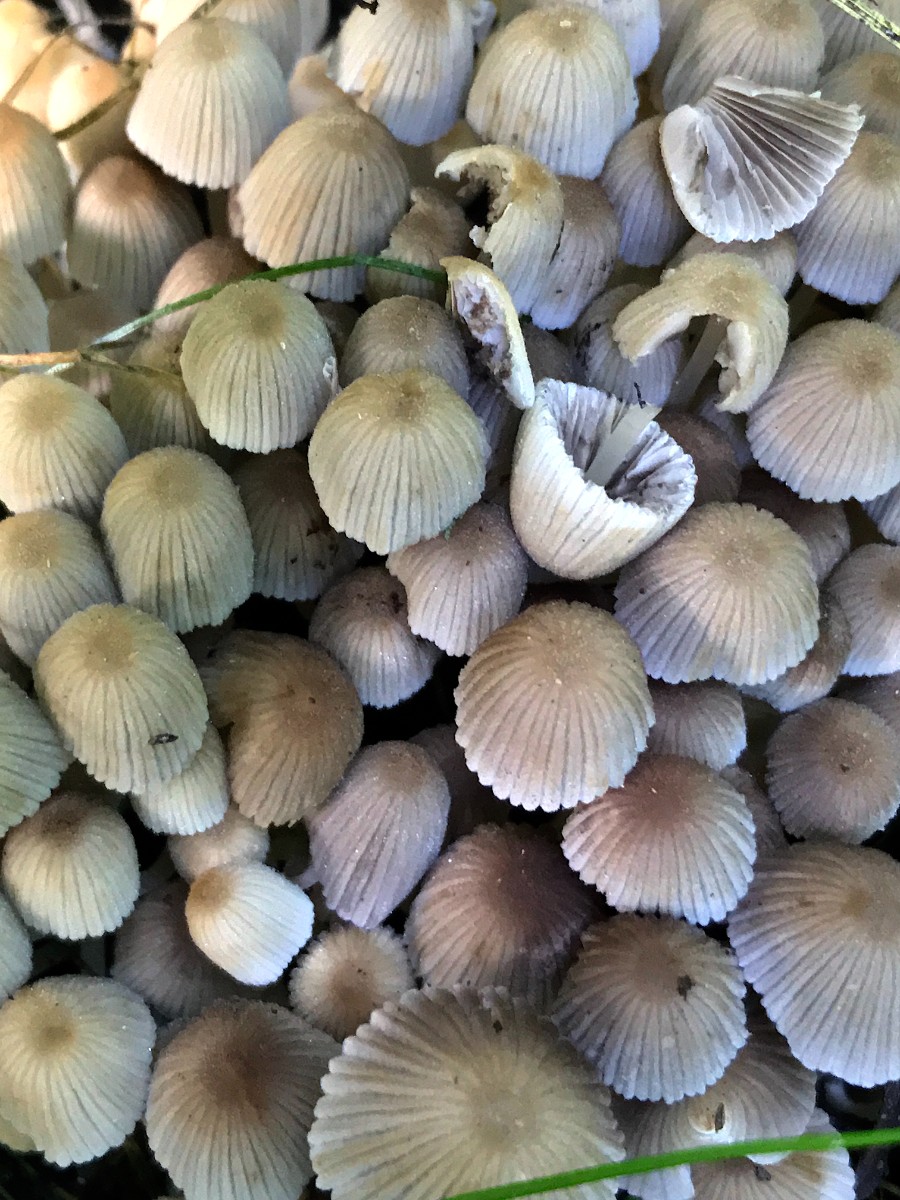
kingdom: Fungi
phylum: Basidiomycota
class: Agaricomycetes
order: Agaricales
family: Psathyrellaceae
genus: Coprinellus
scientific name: Coprinellus disseminatus
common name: bredsået blækhat
